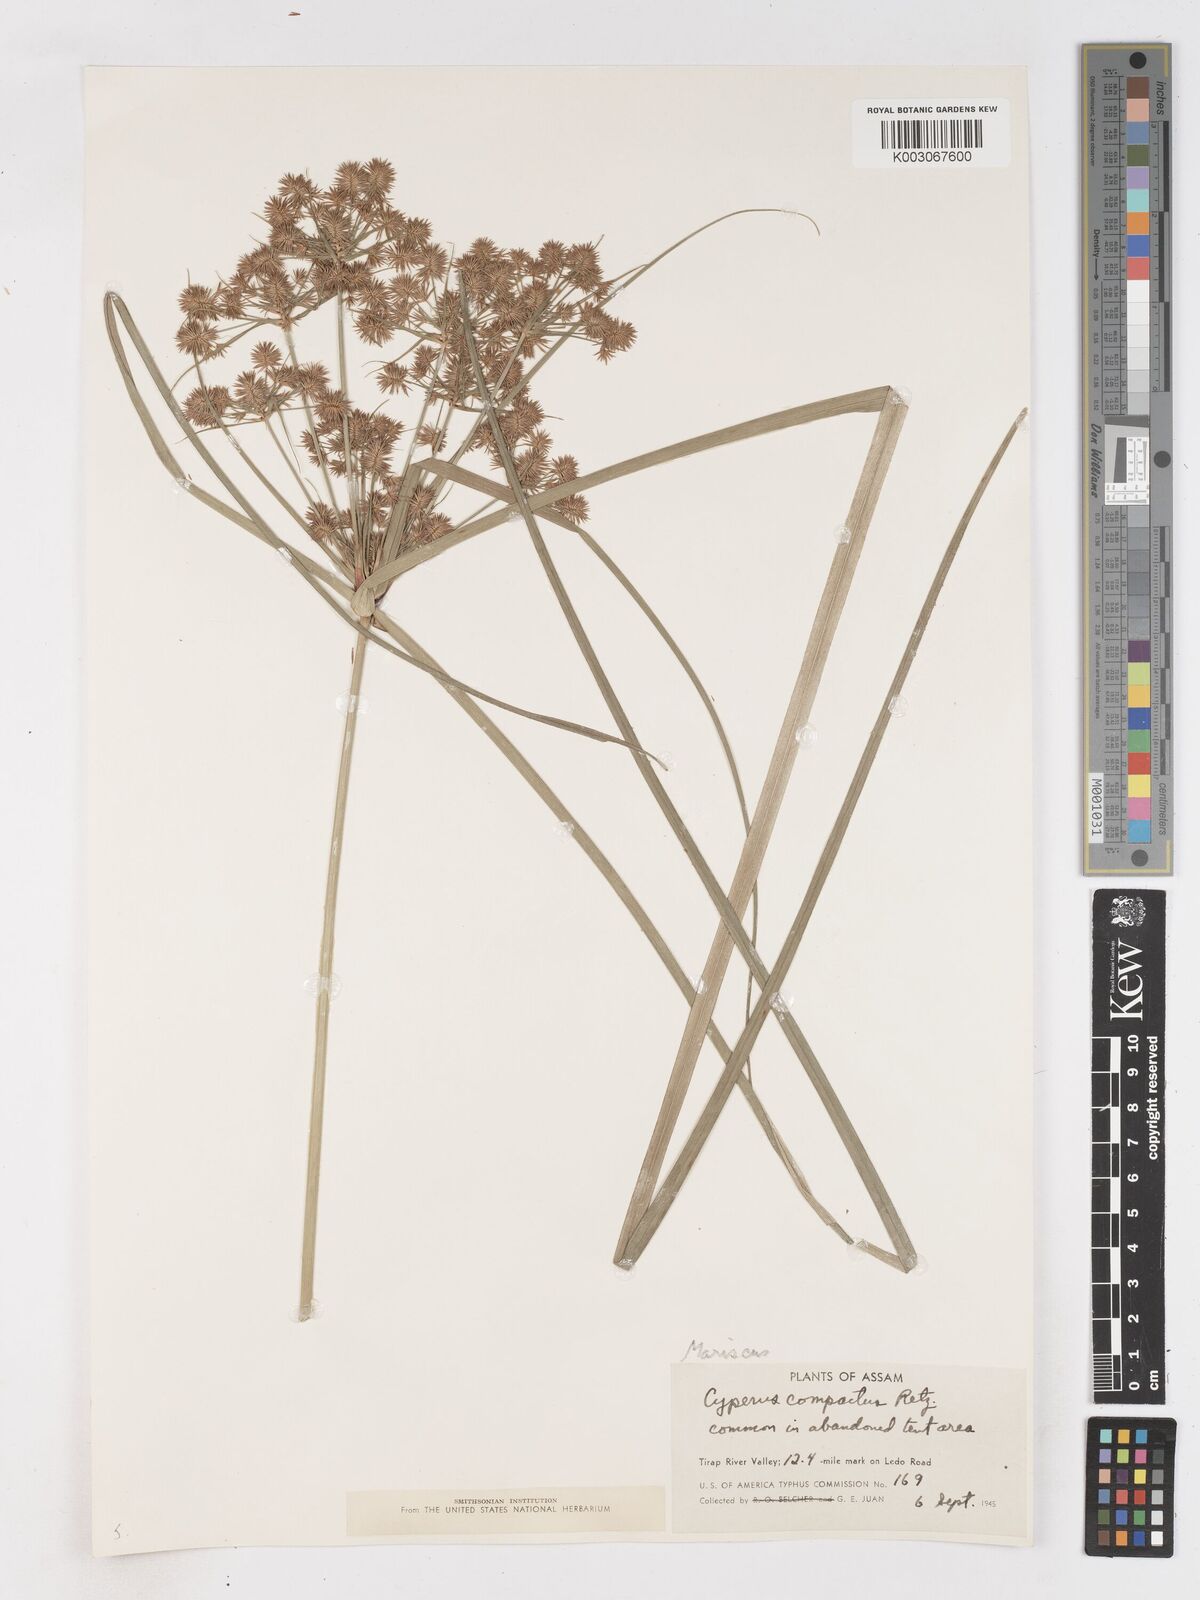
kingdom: Plantae
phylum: Tracheophyta
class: Liliopsida
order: Poales
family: Cyperaceae
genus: Cyperus
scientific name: Cyperus compactus
